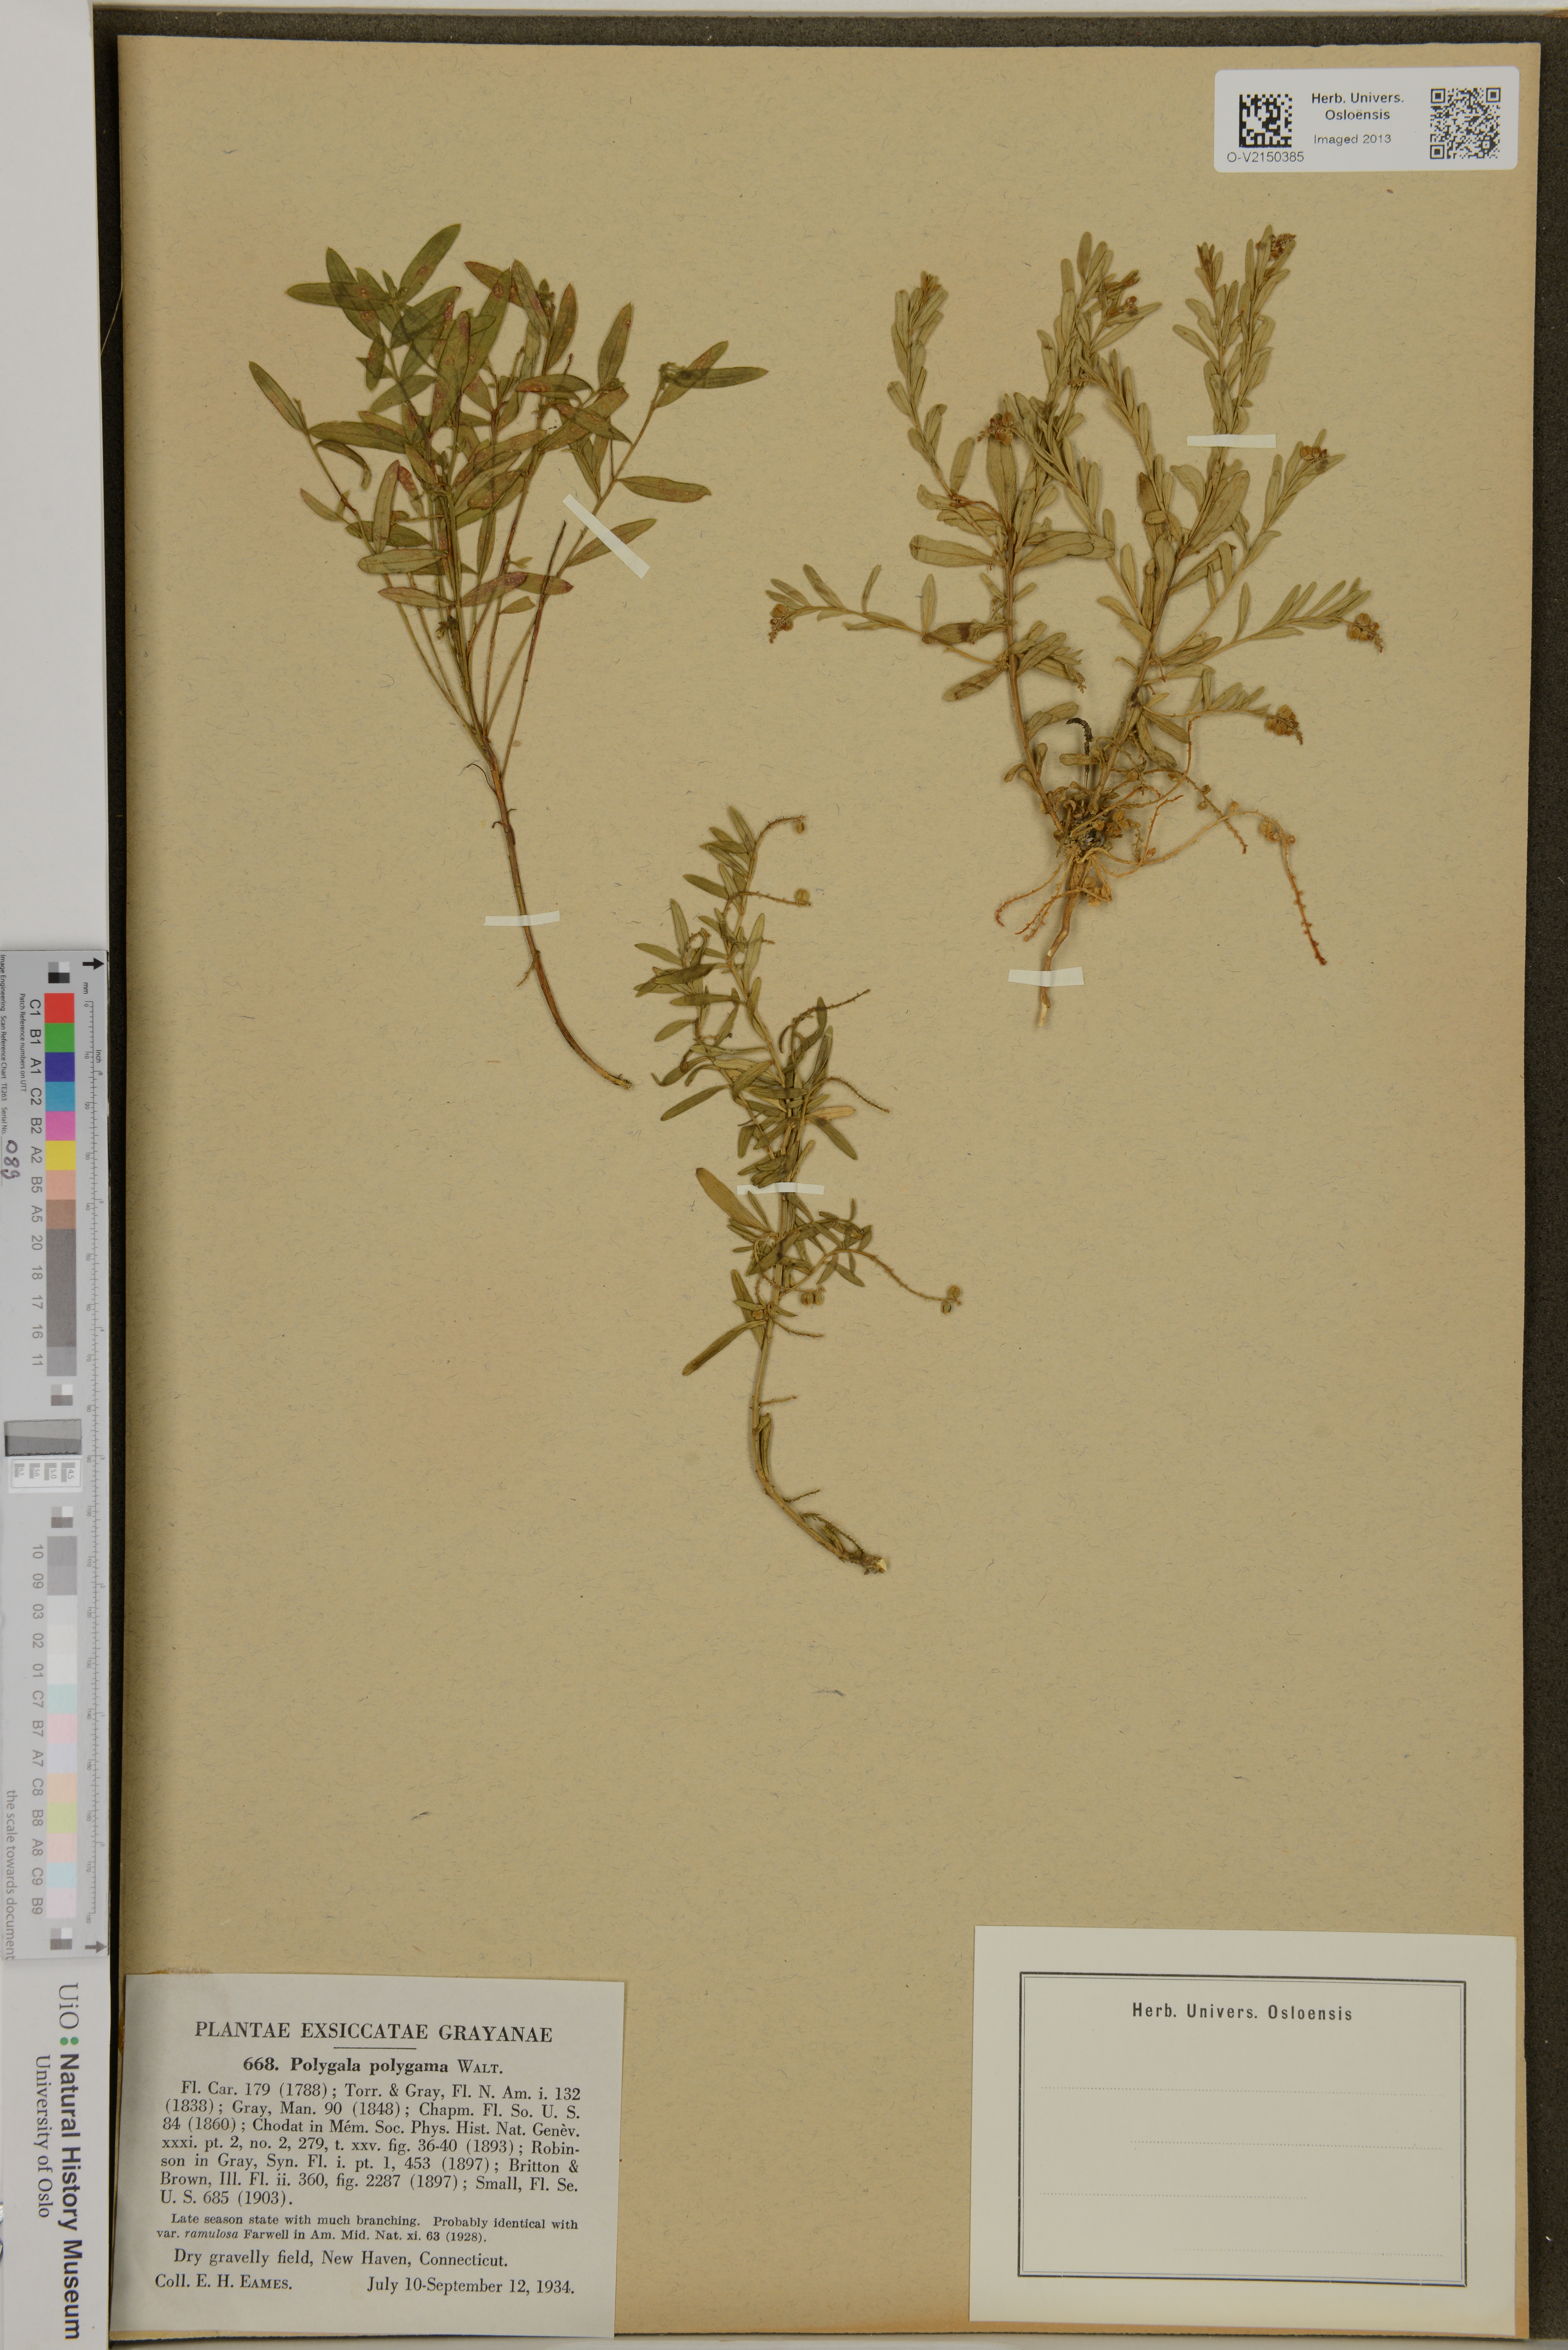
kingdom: Plantae
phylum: Tracheophyta
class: Magnoliopsida
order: Fabales
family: Polygalaceae
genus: Polygala
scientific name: Polygala polygama
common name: Bitter milkwort
